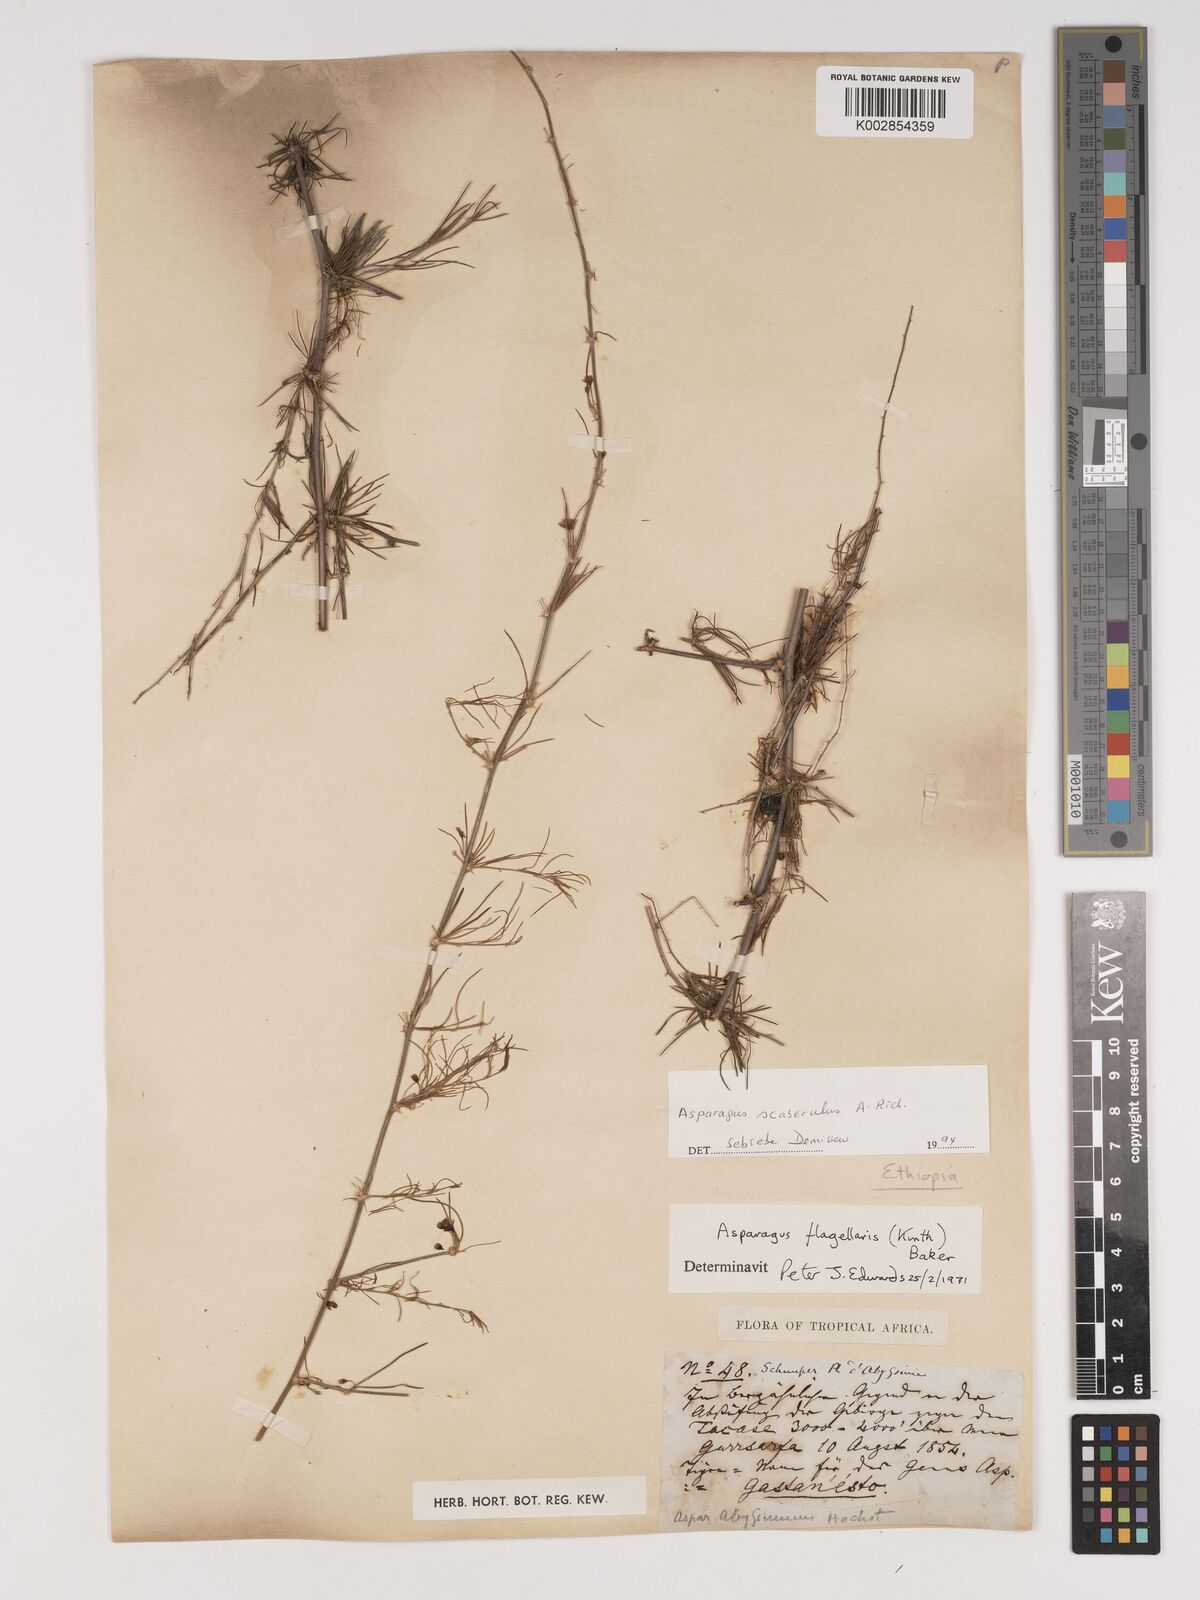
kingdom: Plantae
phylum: Tracheophyta
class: Liliopsida
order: Asparagales
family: Asparagaceae
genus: Asparagus
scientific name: Asparagus scaberulus
